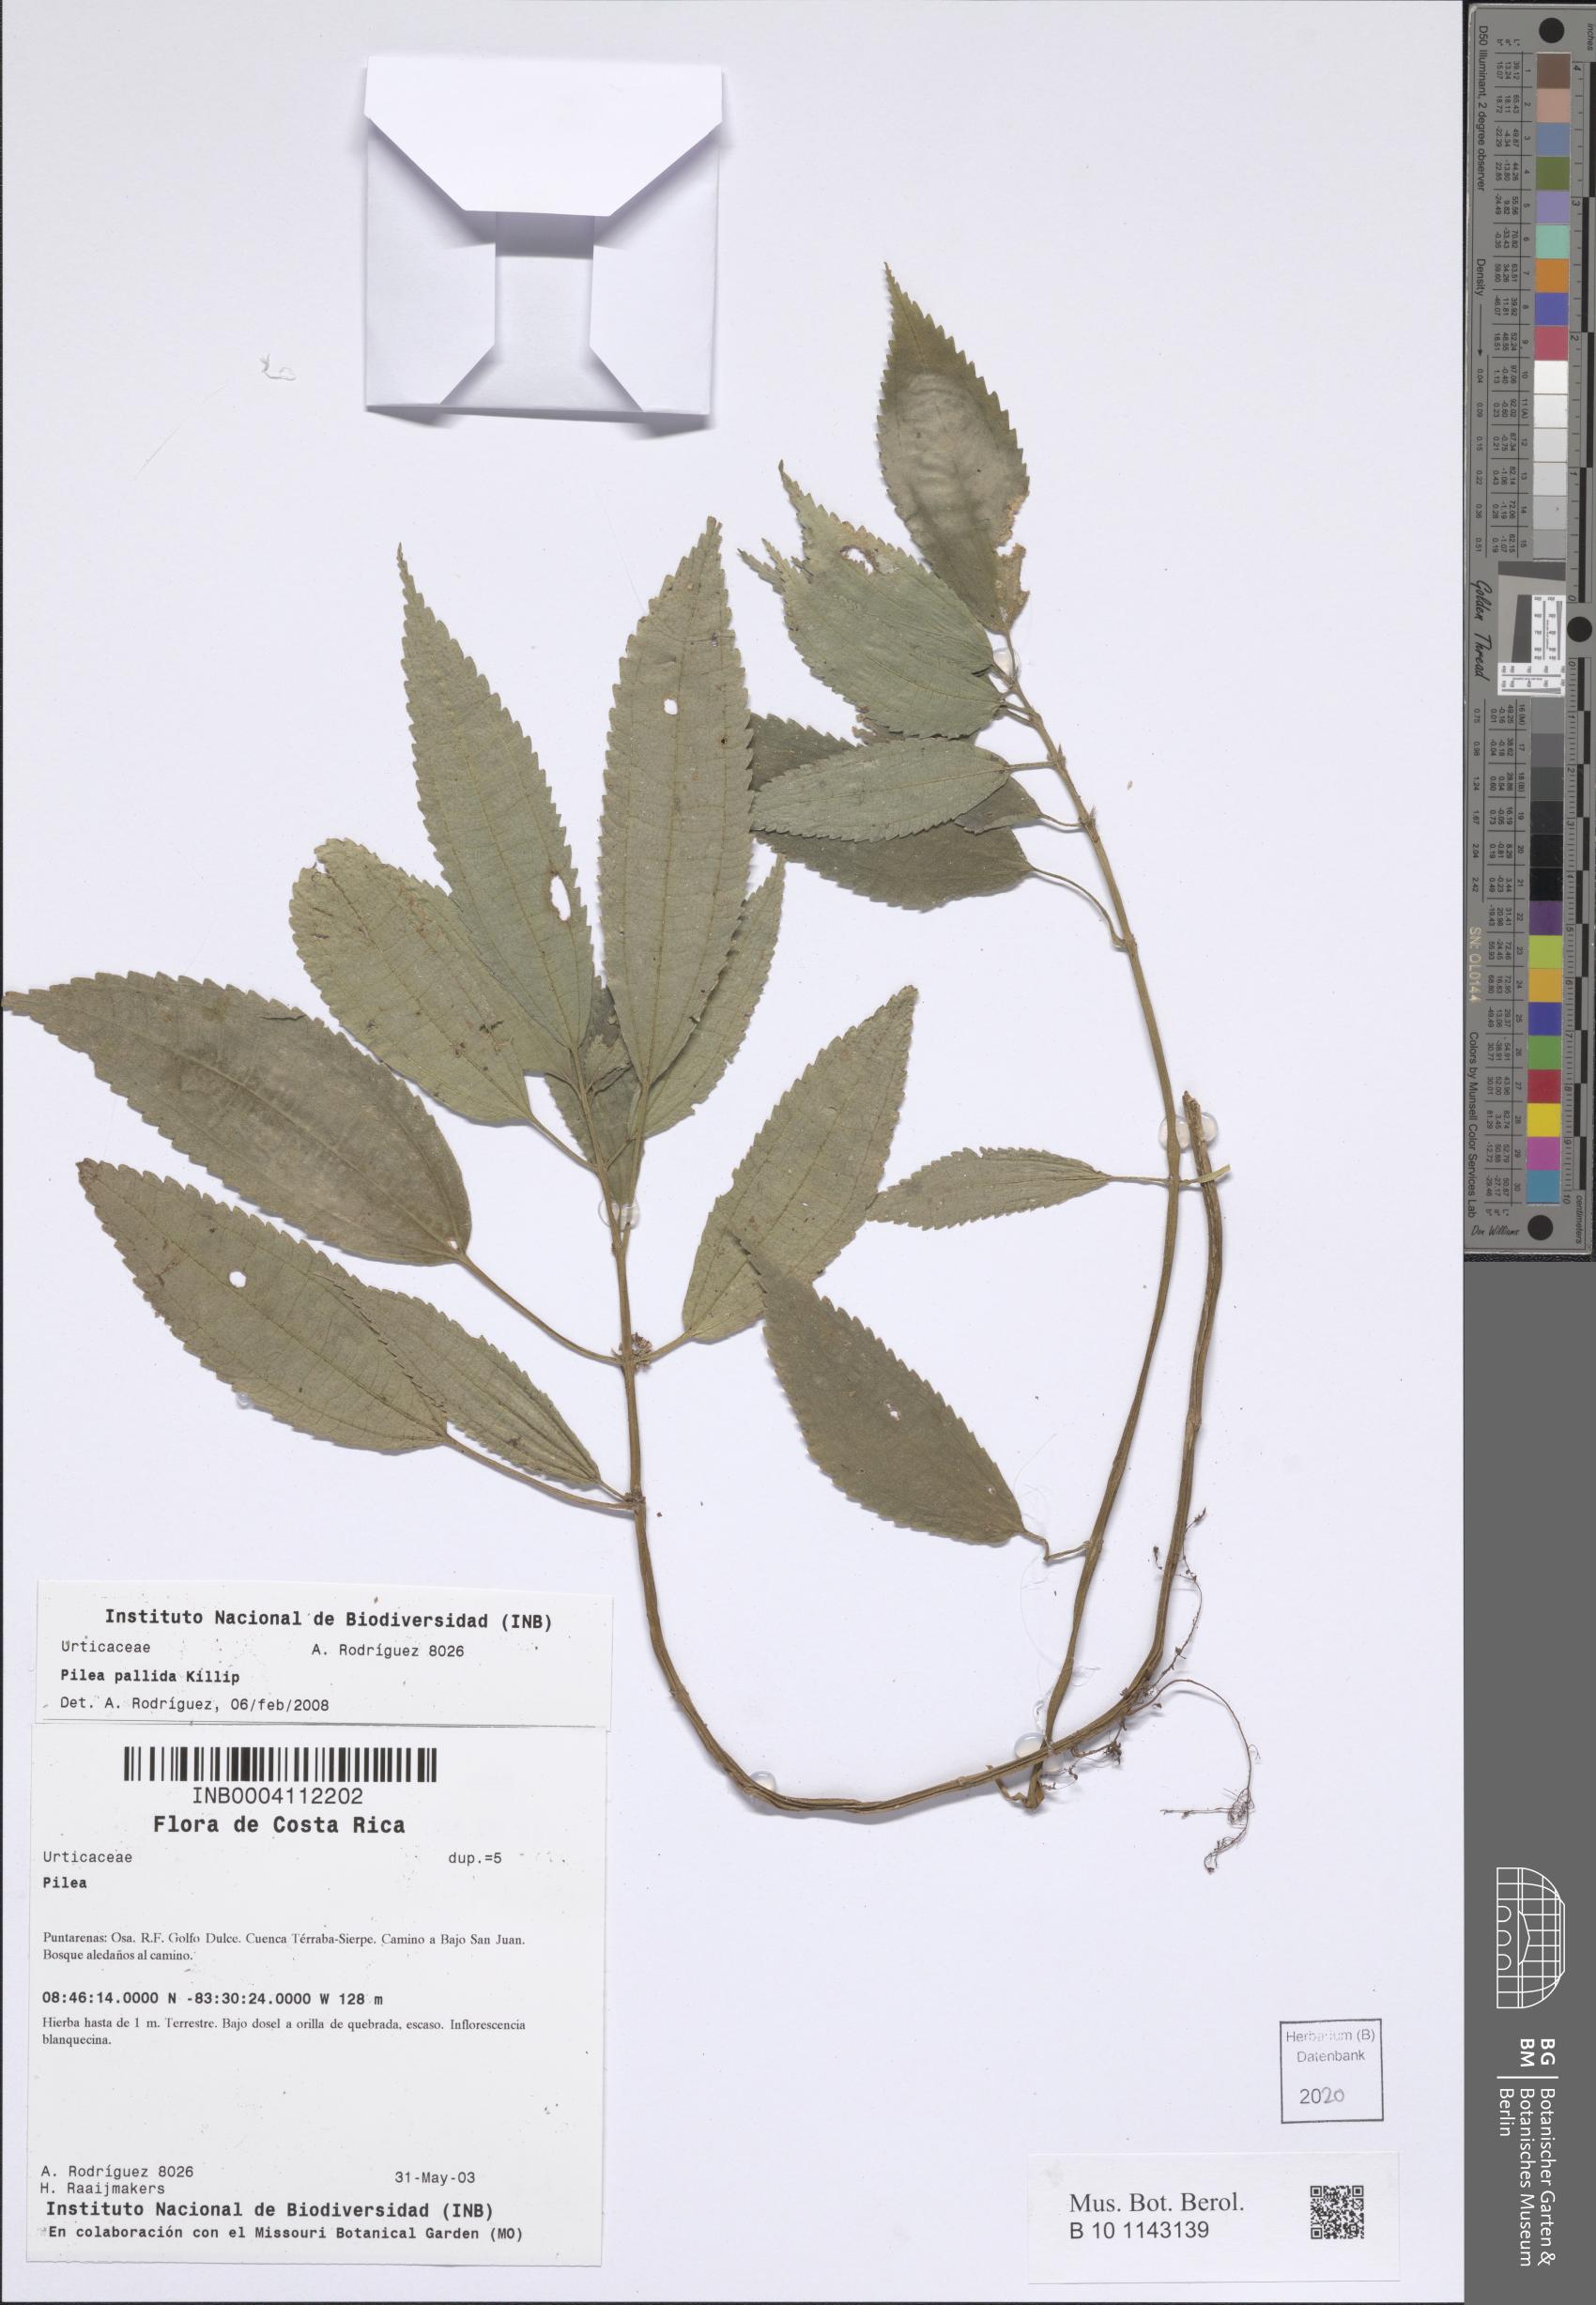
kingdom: Plantae
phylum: Tracheophyta
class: Magnoliopsida
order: Rosales
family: Urticaceae
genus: Pilea
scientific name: Pilea pallida
